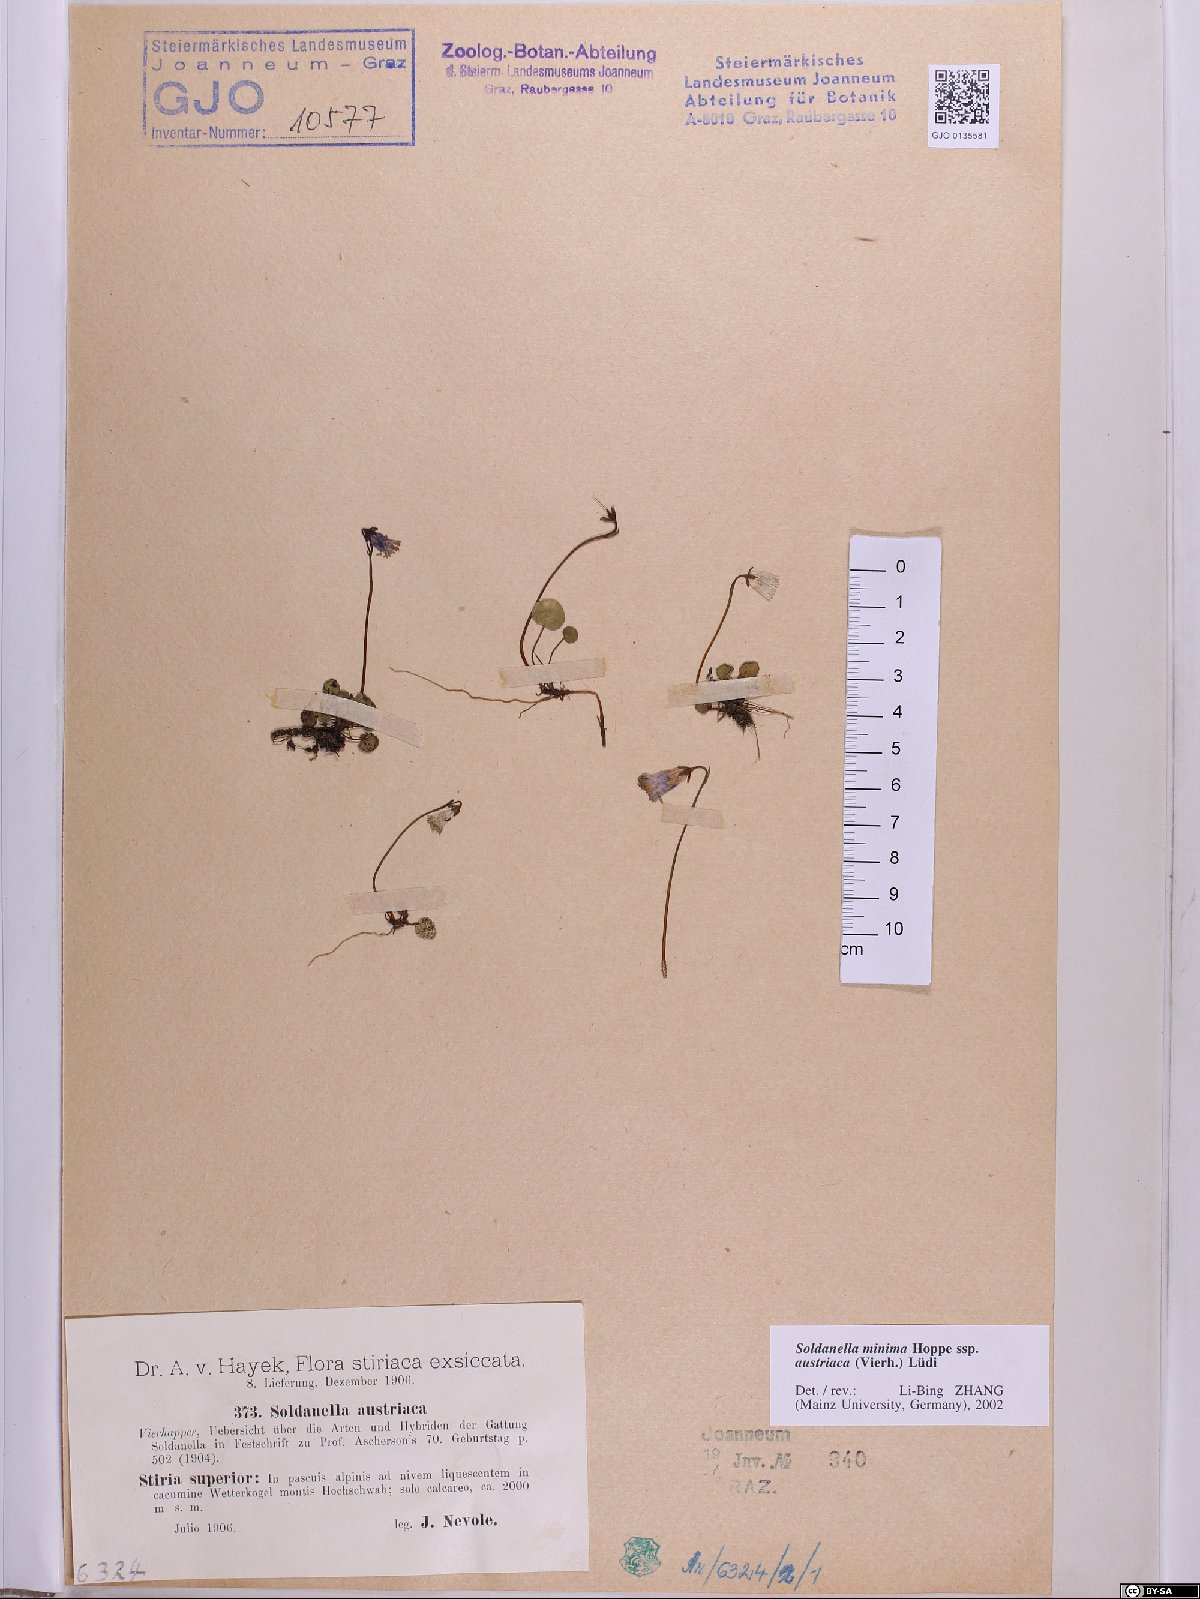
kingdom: Plantae
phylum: Tracheophyta
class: Magnoliopsida
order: Ericales
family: Primulaceae
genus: Soldanella
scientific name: Soldanella austriaca
